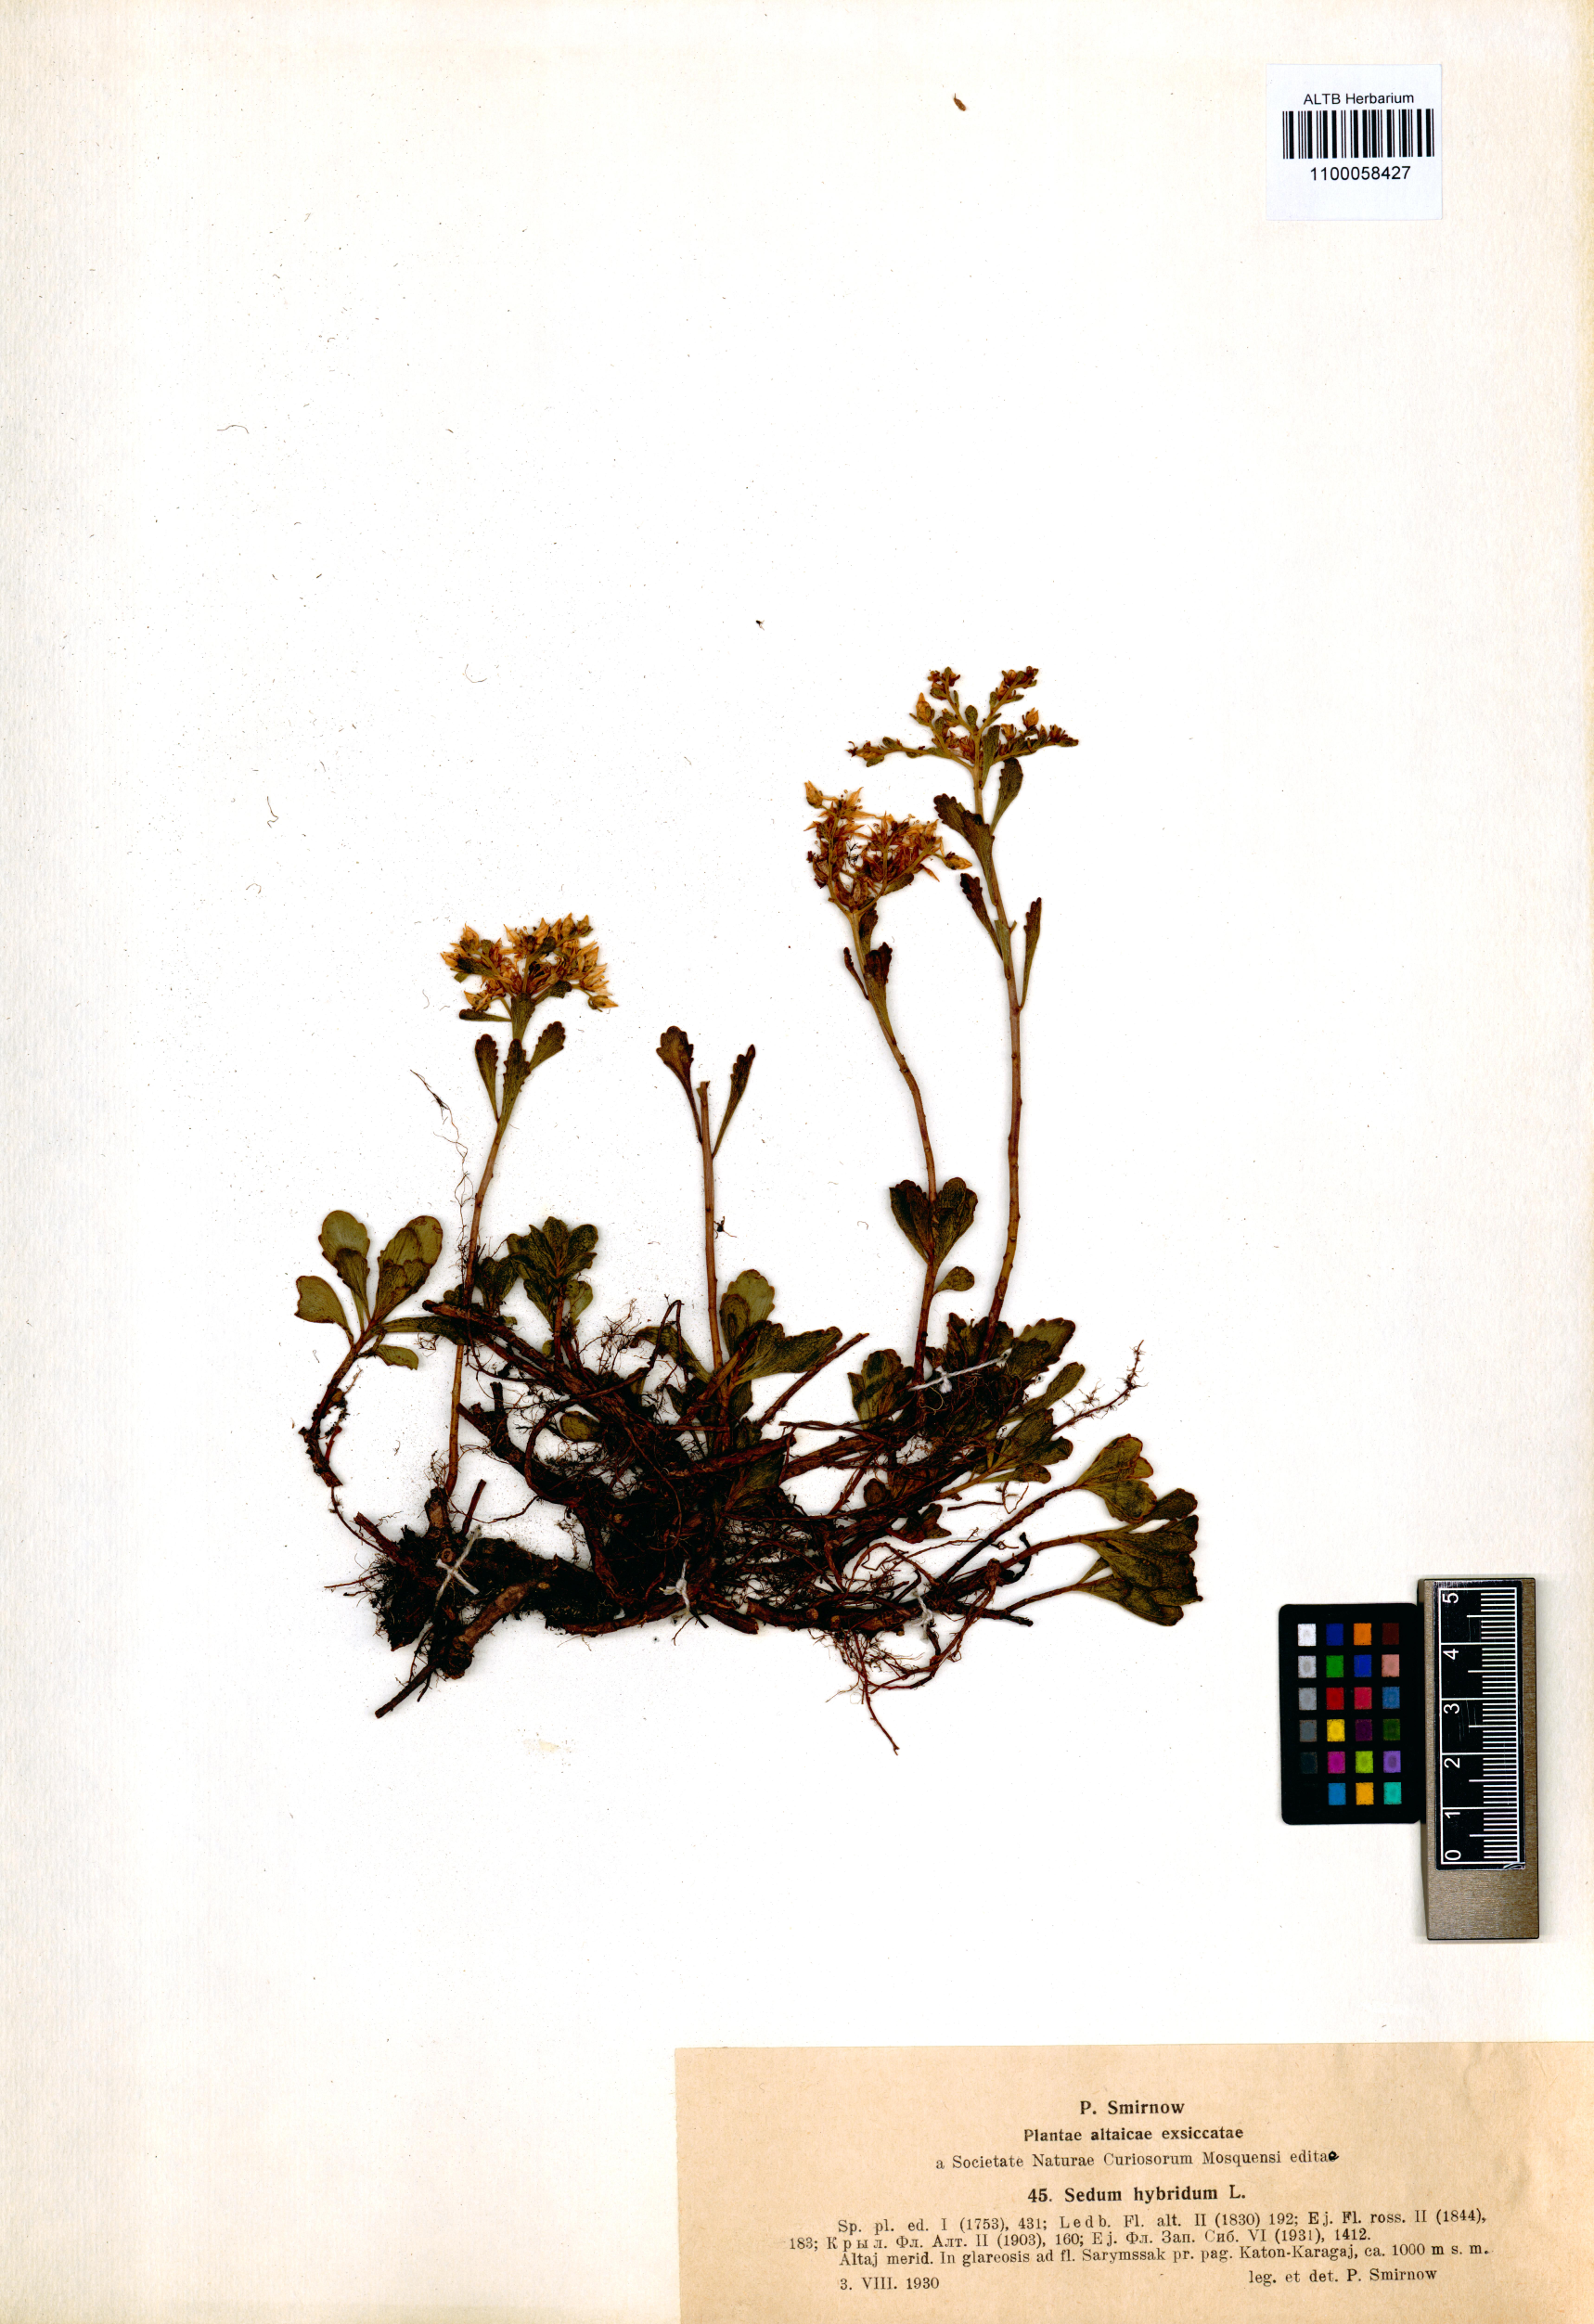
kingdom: Plantae
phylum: Tracheophyta
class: Magnoliopsida
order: Saxifragales
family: Crassulaceae
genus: Phedimus
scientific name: Phedimus hybridus
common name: Hybrid stonecrop
